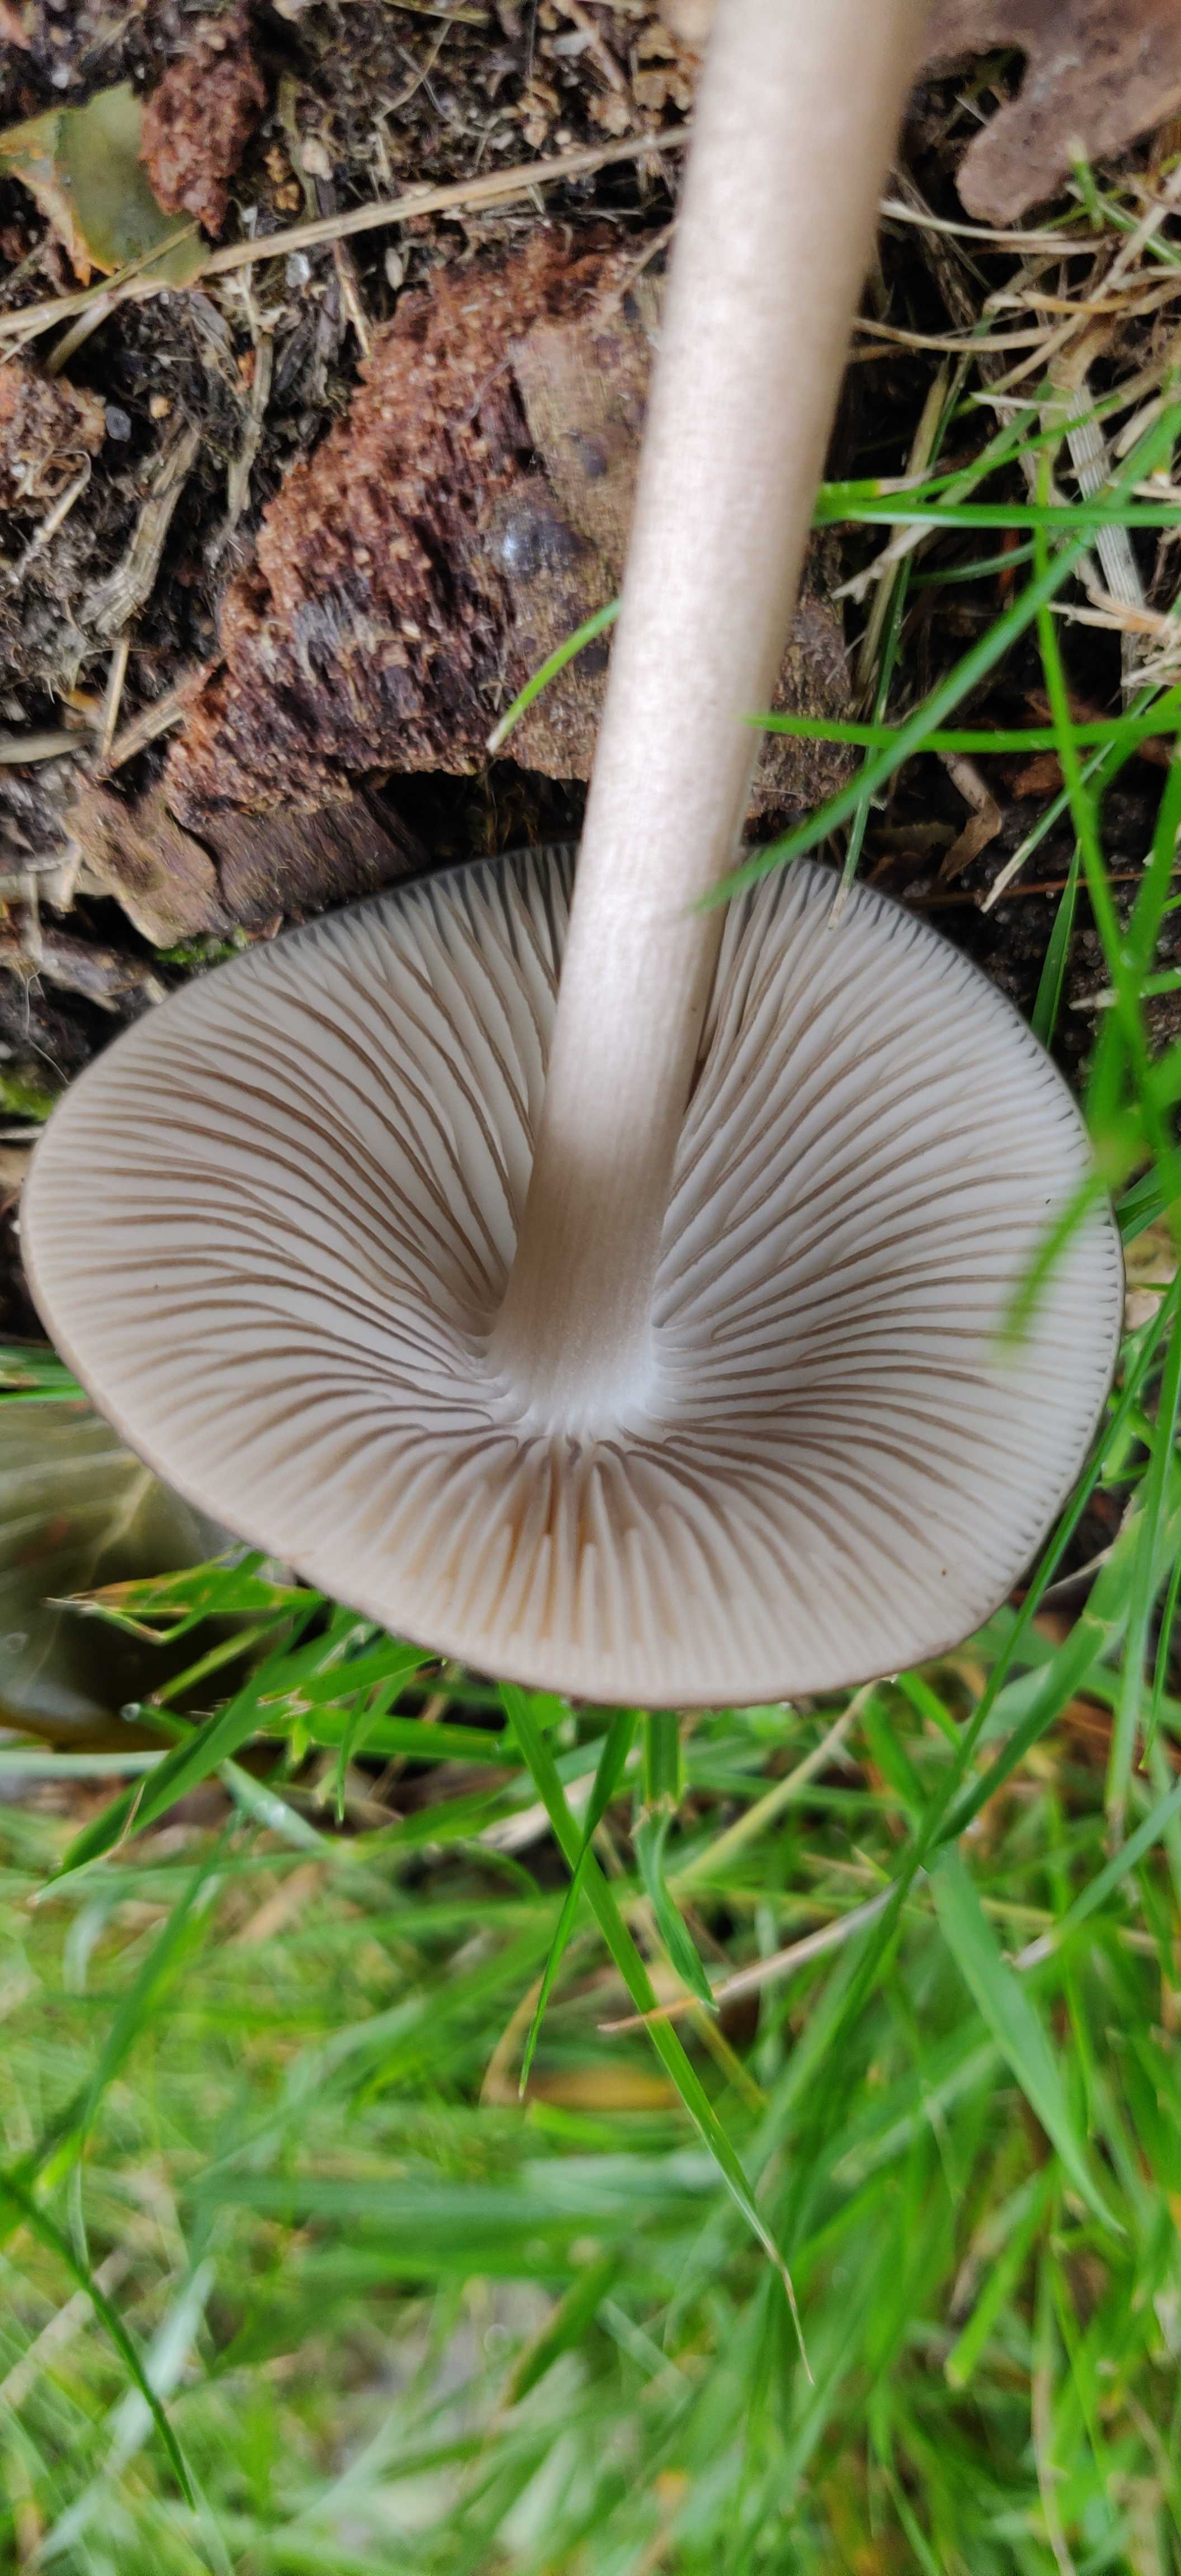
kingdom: Fungi
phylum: Basidiomycota
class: Agaricomycetes
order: Agaricales
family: Physalacriaceae
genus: Hymenopellis
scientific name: Hymenopellis radicata
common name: almindelig pælerodshat
